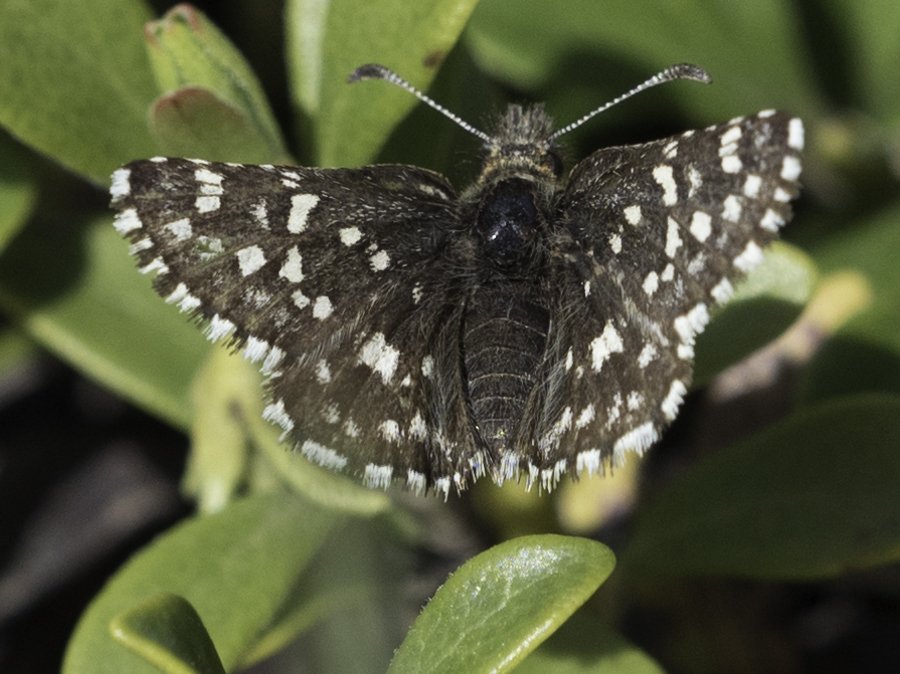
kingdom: Animalia
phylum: Arthropoda
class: Insecta
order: Lepidoptera
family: Hesperiidae
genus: Pyrgus
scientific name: Pyrgus ruralis
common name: Two-banded Checkered-Skipper
